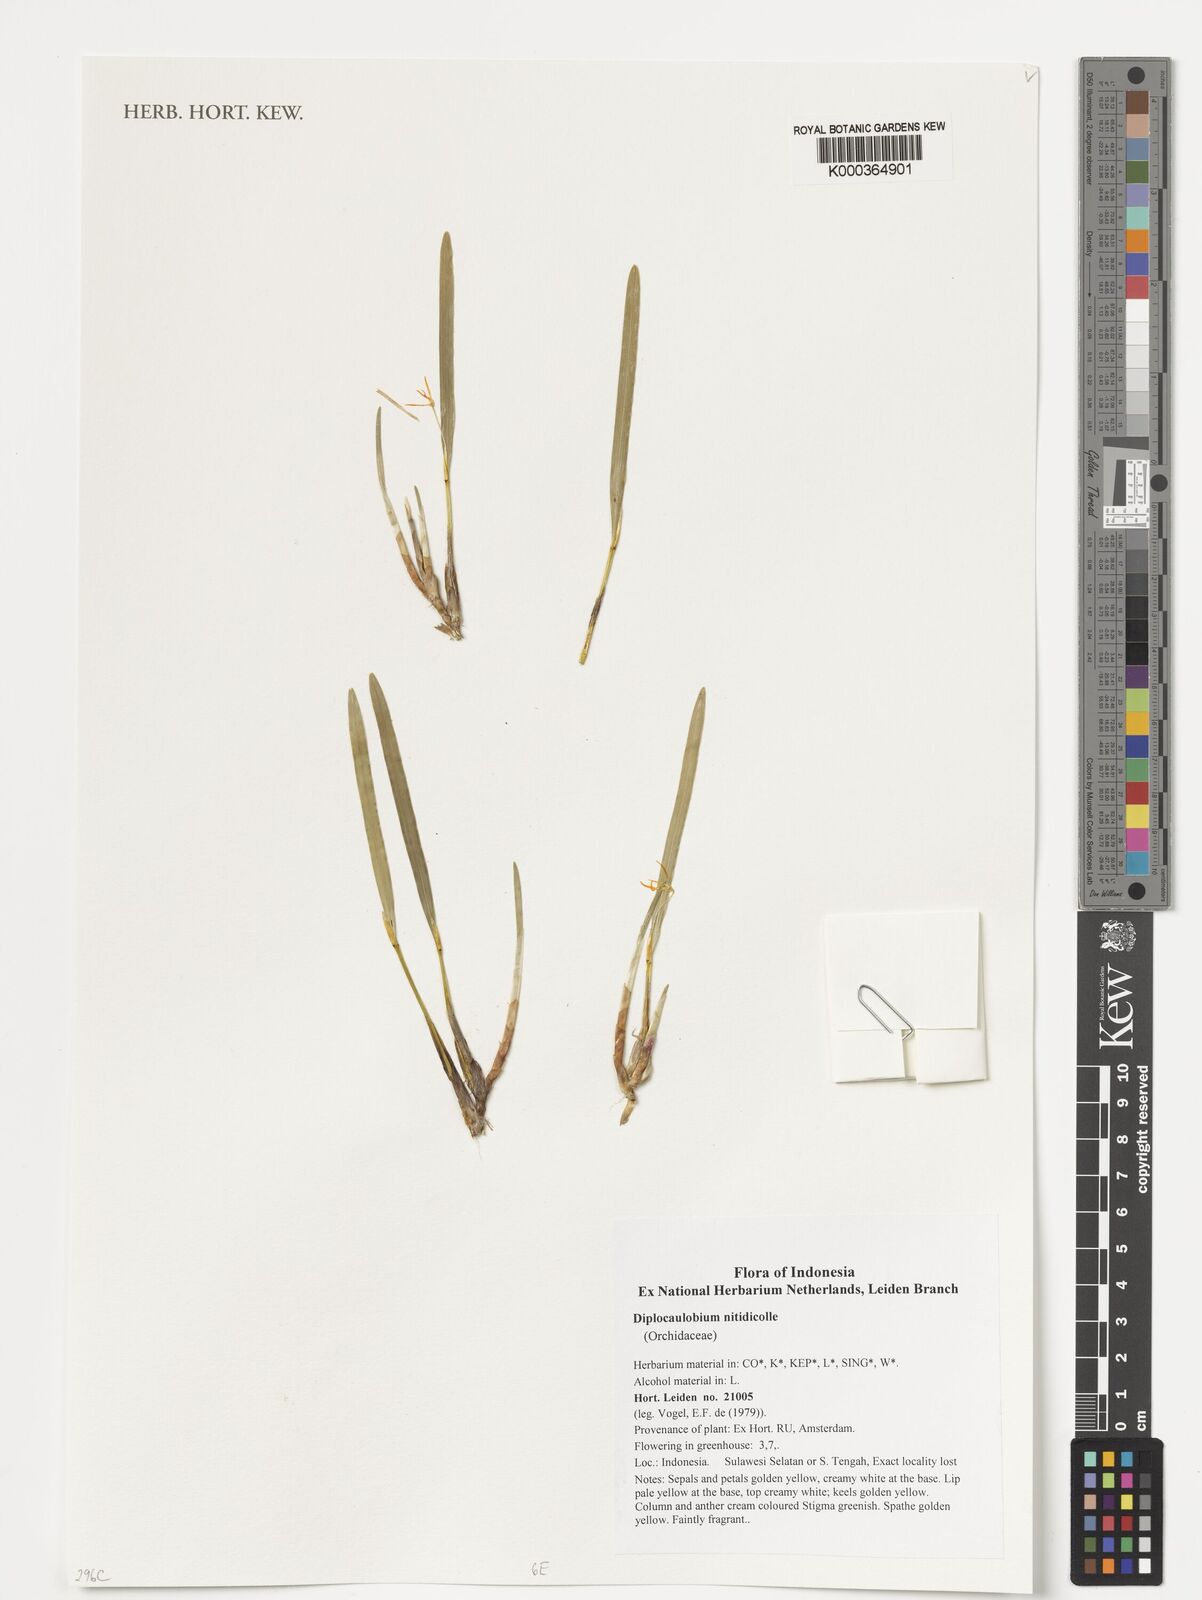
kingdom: Plantae
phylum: Tracheophyta
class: Liliopsida
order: Asparagales
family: Orchidaceae
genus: Dendrobium
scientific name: Dendrobium nitidicolle
